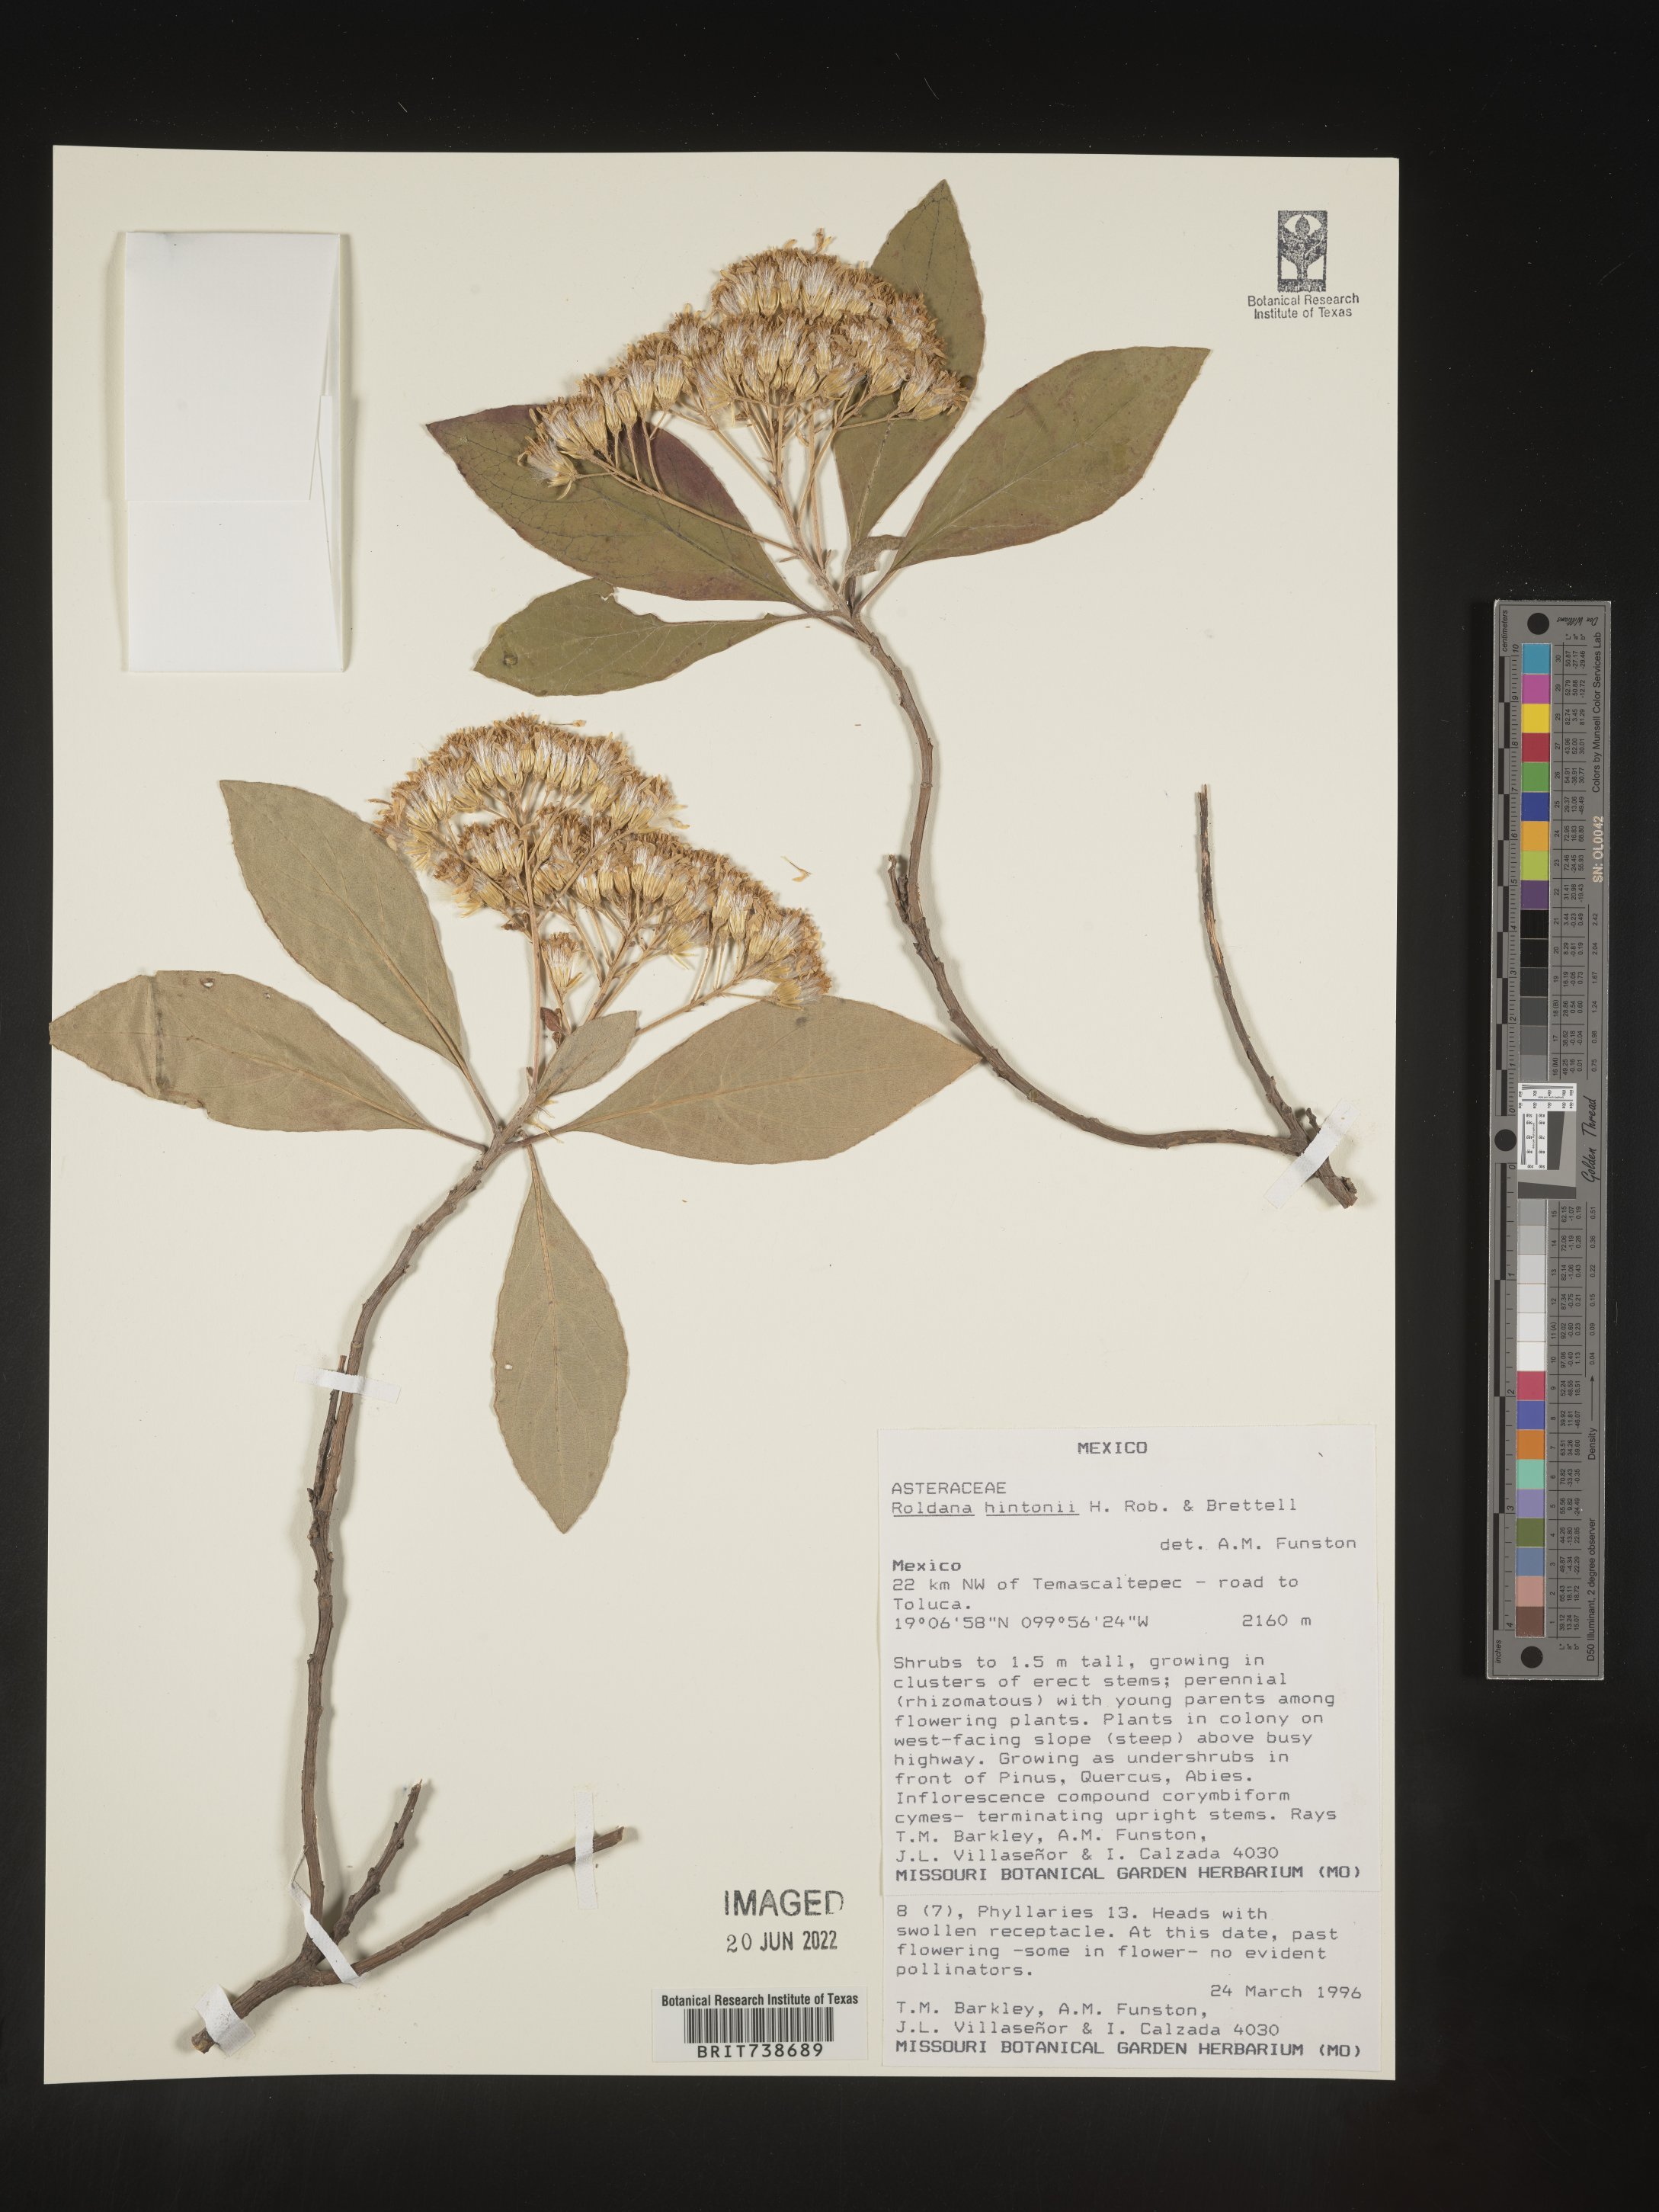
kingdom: Plantae
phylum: Tracheophyta
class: Magnoliopsida
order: Asterales
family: Asteraceae
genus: Roldana
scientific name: Roldana
